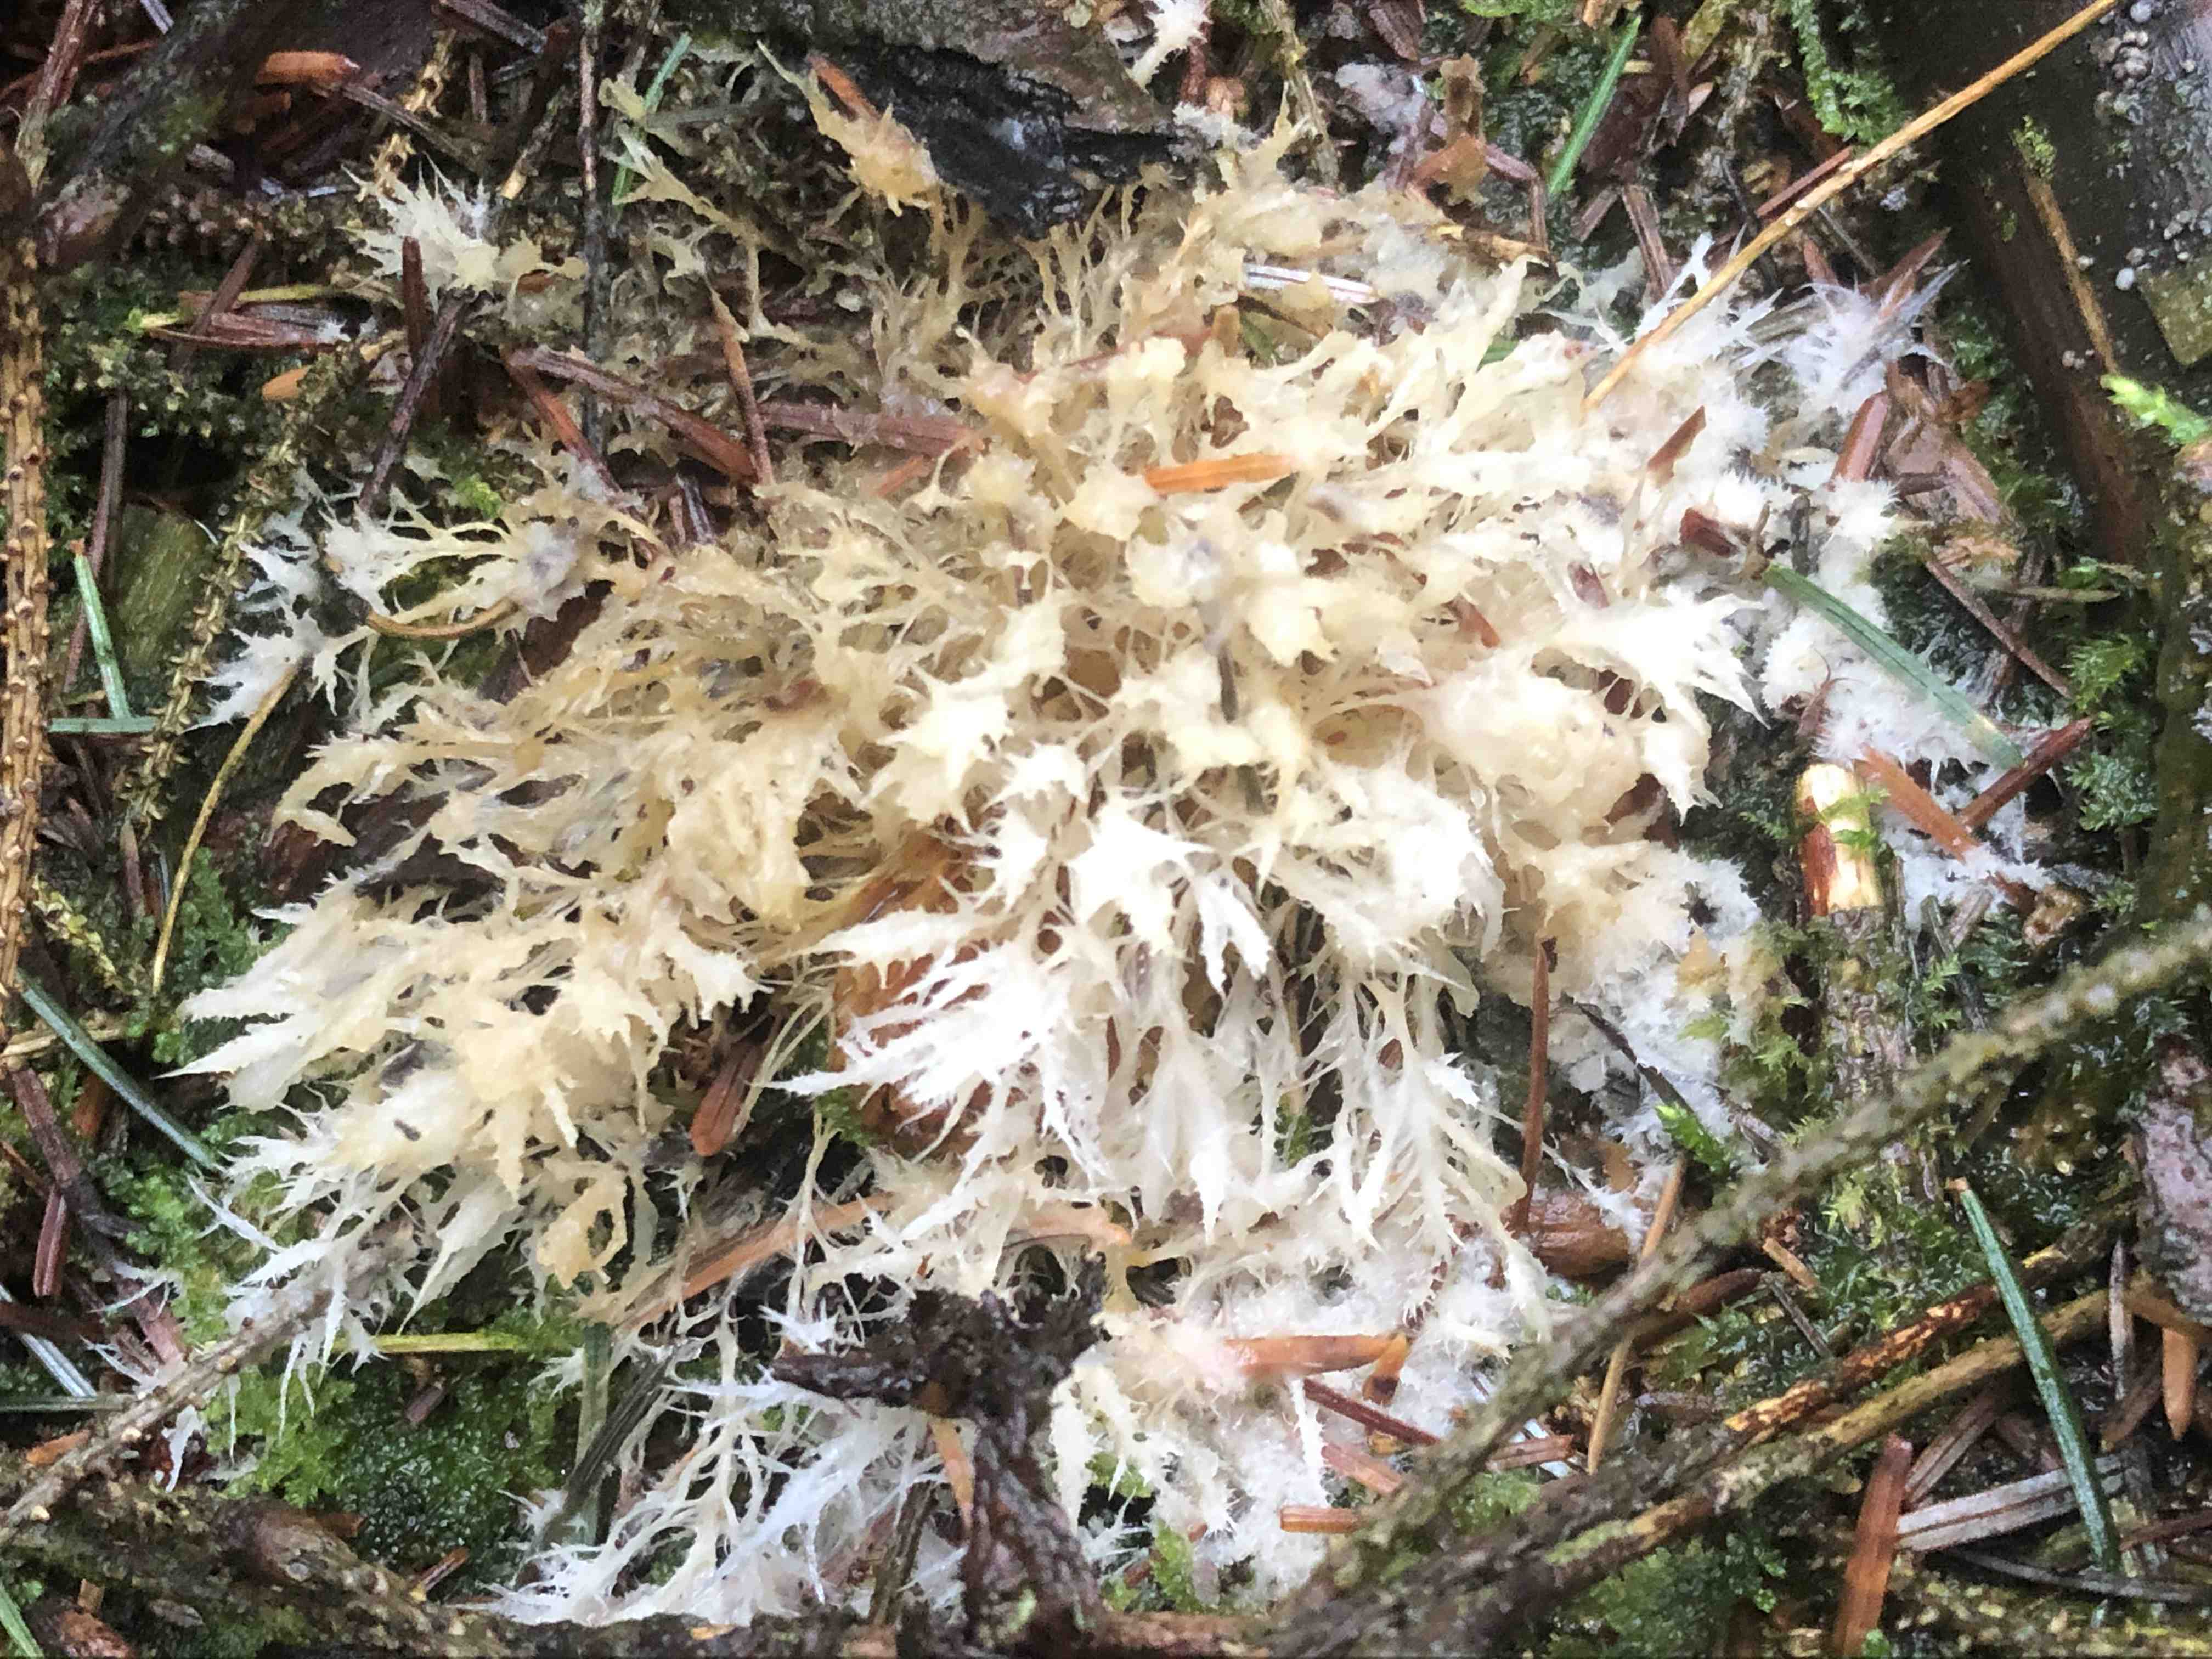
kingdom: Fungi
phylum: Basidiomycota
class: Agaricomycetes
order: Agaricales
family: Pterulaceae
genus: Pterula
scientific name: Pterula multifida
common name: busket fjerkølle
